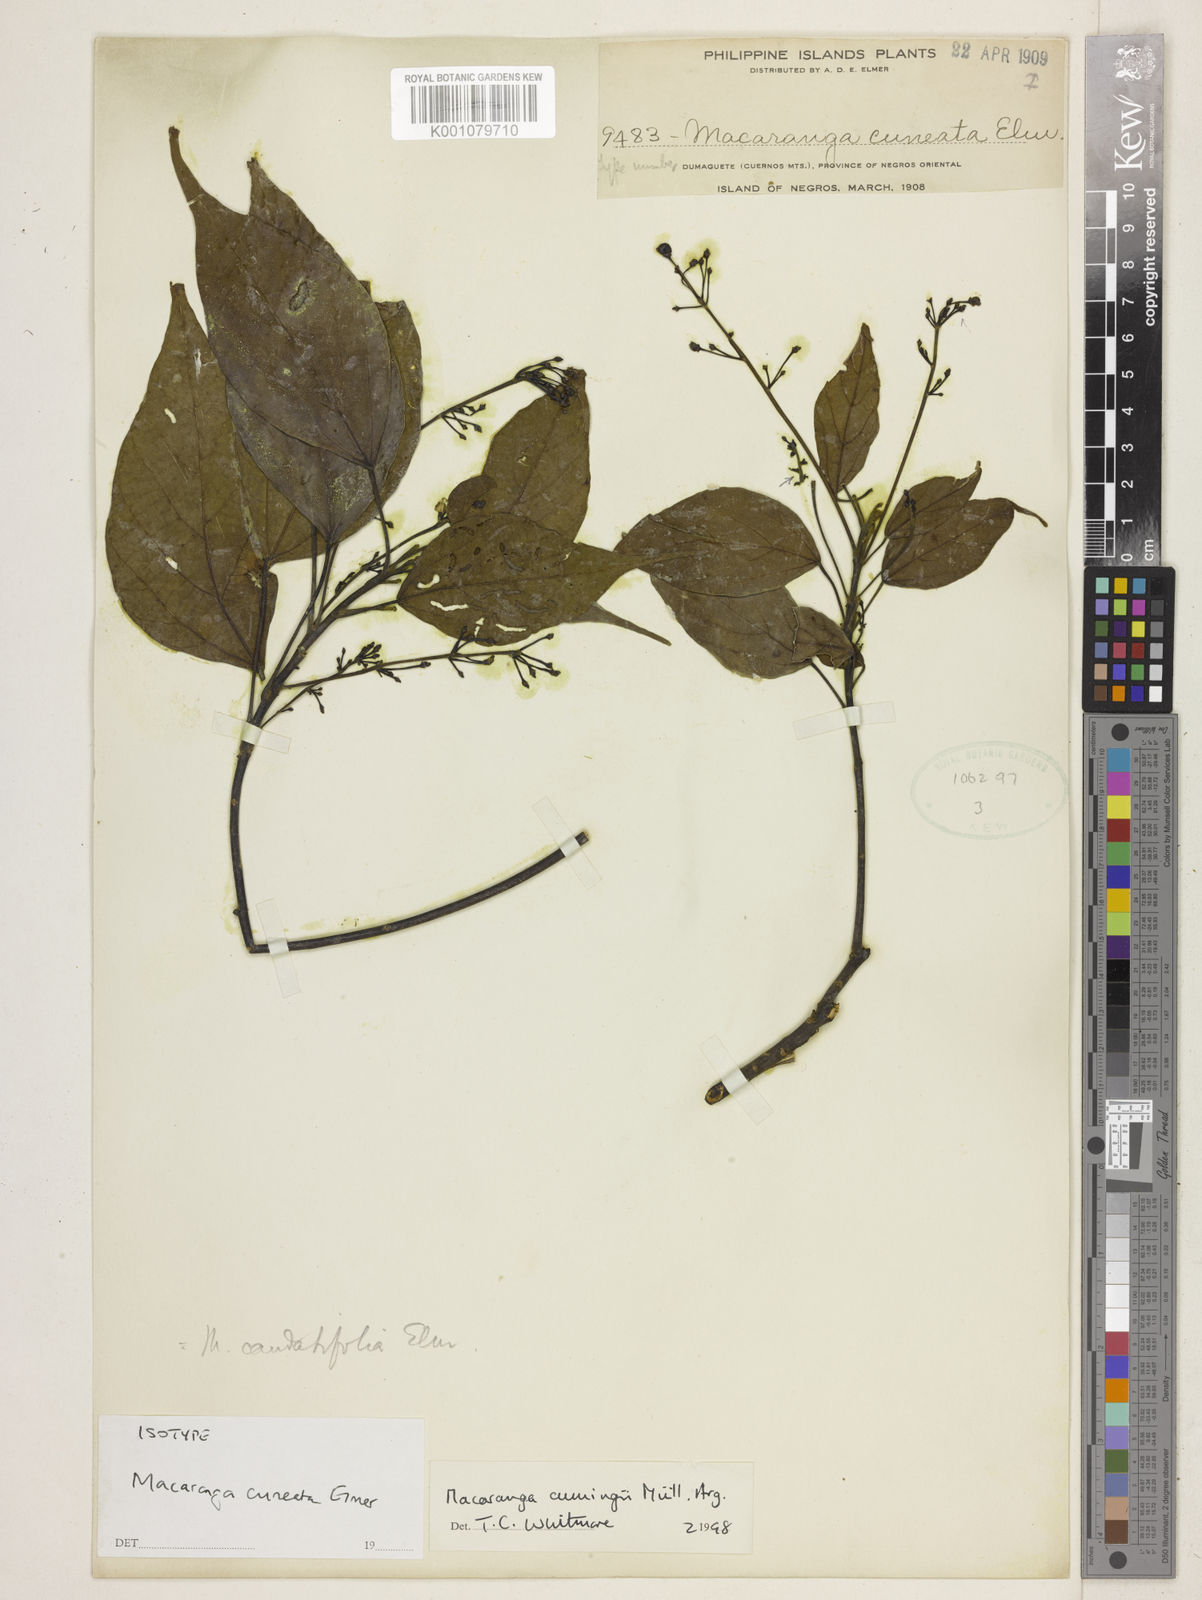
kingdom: Plantae
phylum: Tracheophyta
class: Magnoliopsida
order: Malpighiales
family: Euphorbiaceae
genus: Macaranga
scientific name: Macaranga
